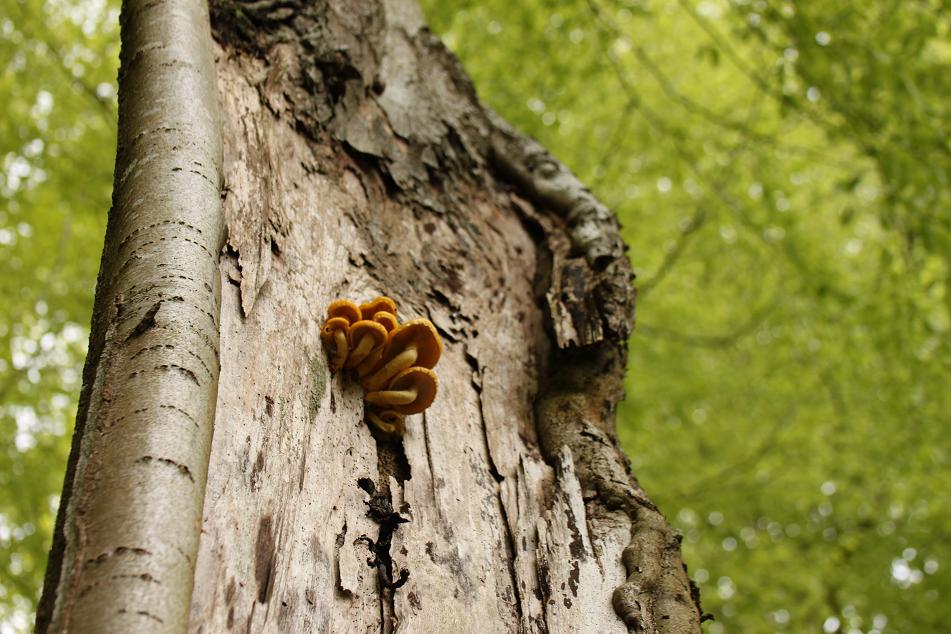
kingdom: Fungi
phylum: Basidiomycota
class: Agaricomycetes
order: Agaricales
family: Strophariaceae
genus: Pholiota
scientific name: Pholiota adiposa
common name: højtsiddende skælhat
